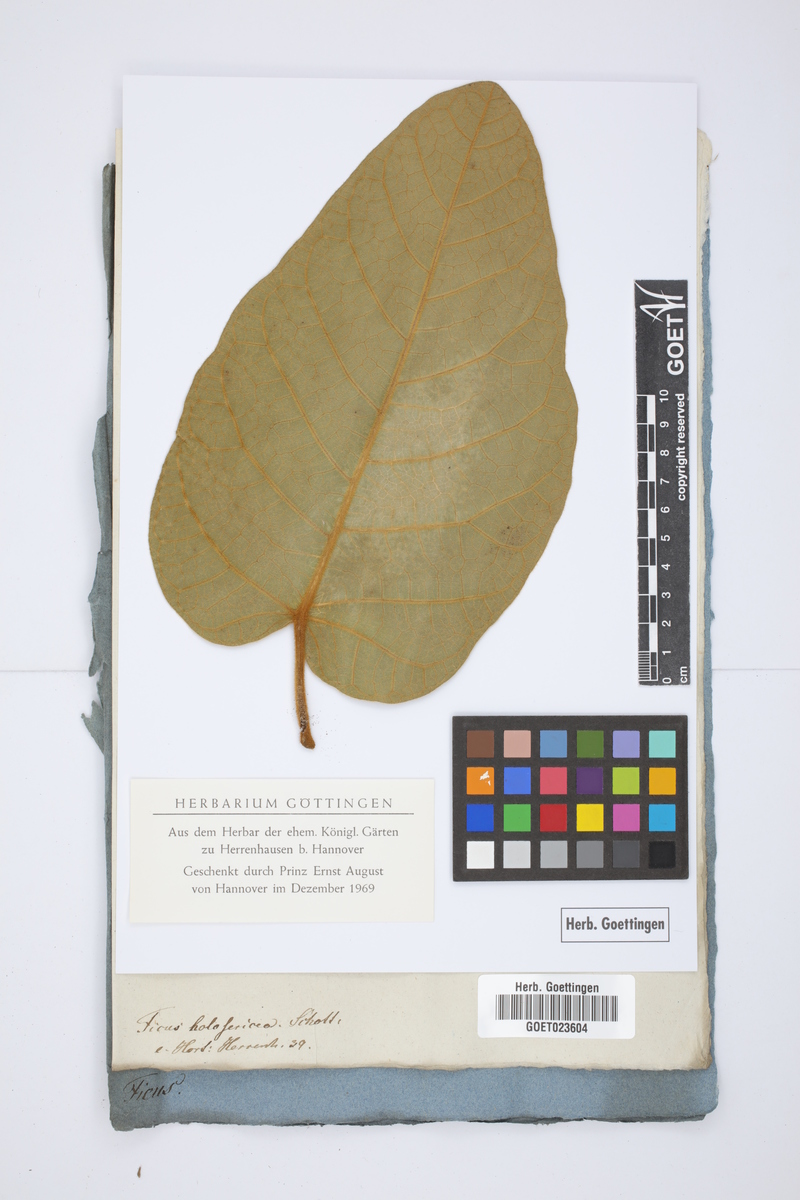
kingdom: Plantae
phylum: Tracheophyta
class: Magnoliopsida
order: Rosales
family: Moraceae
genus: Ficus
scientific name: Ficus holosericea
